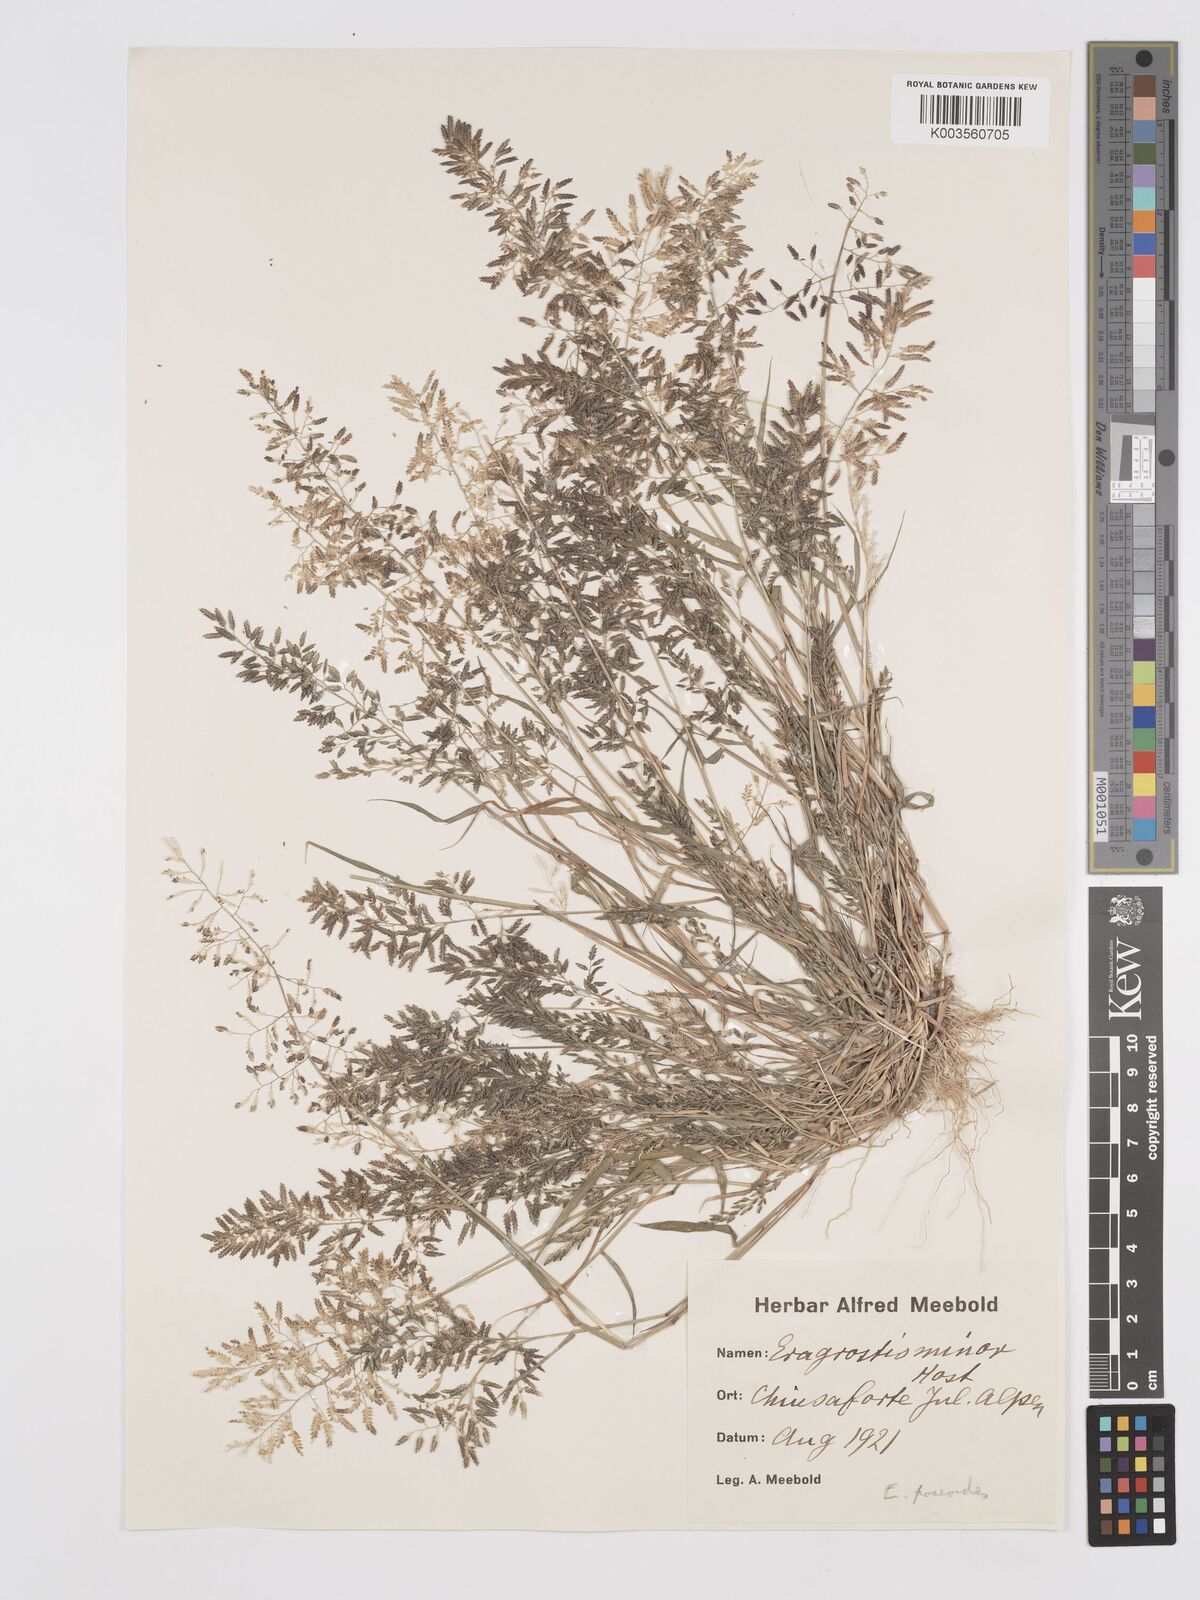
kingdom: Plantae
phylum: Tracheophyta
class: Liliopsida
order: Poales
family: Poaceae
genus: Eragrostis
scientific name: Eragrostis minor
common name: Small love-grass
